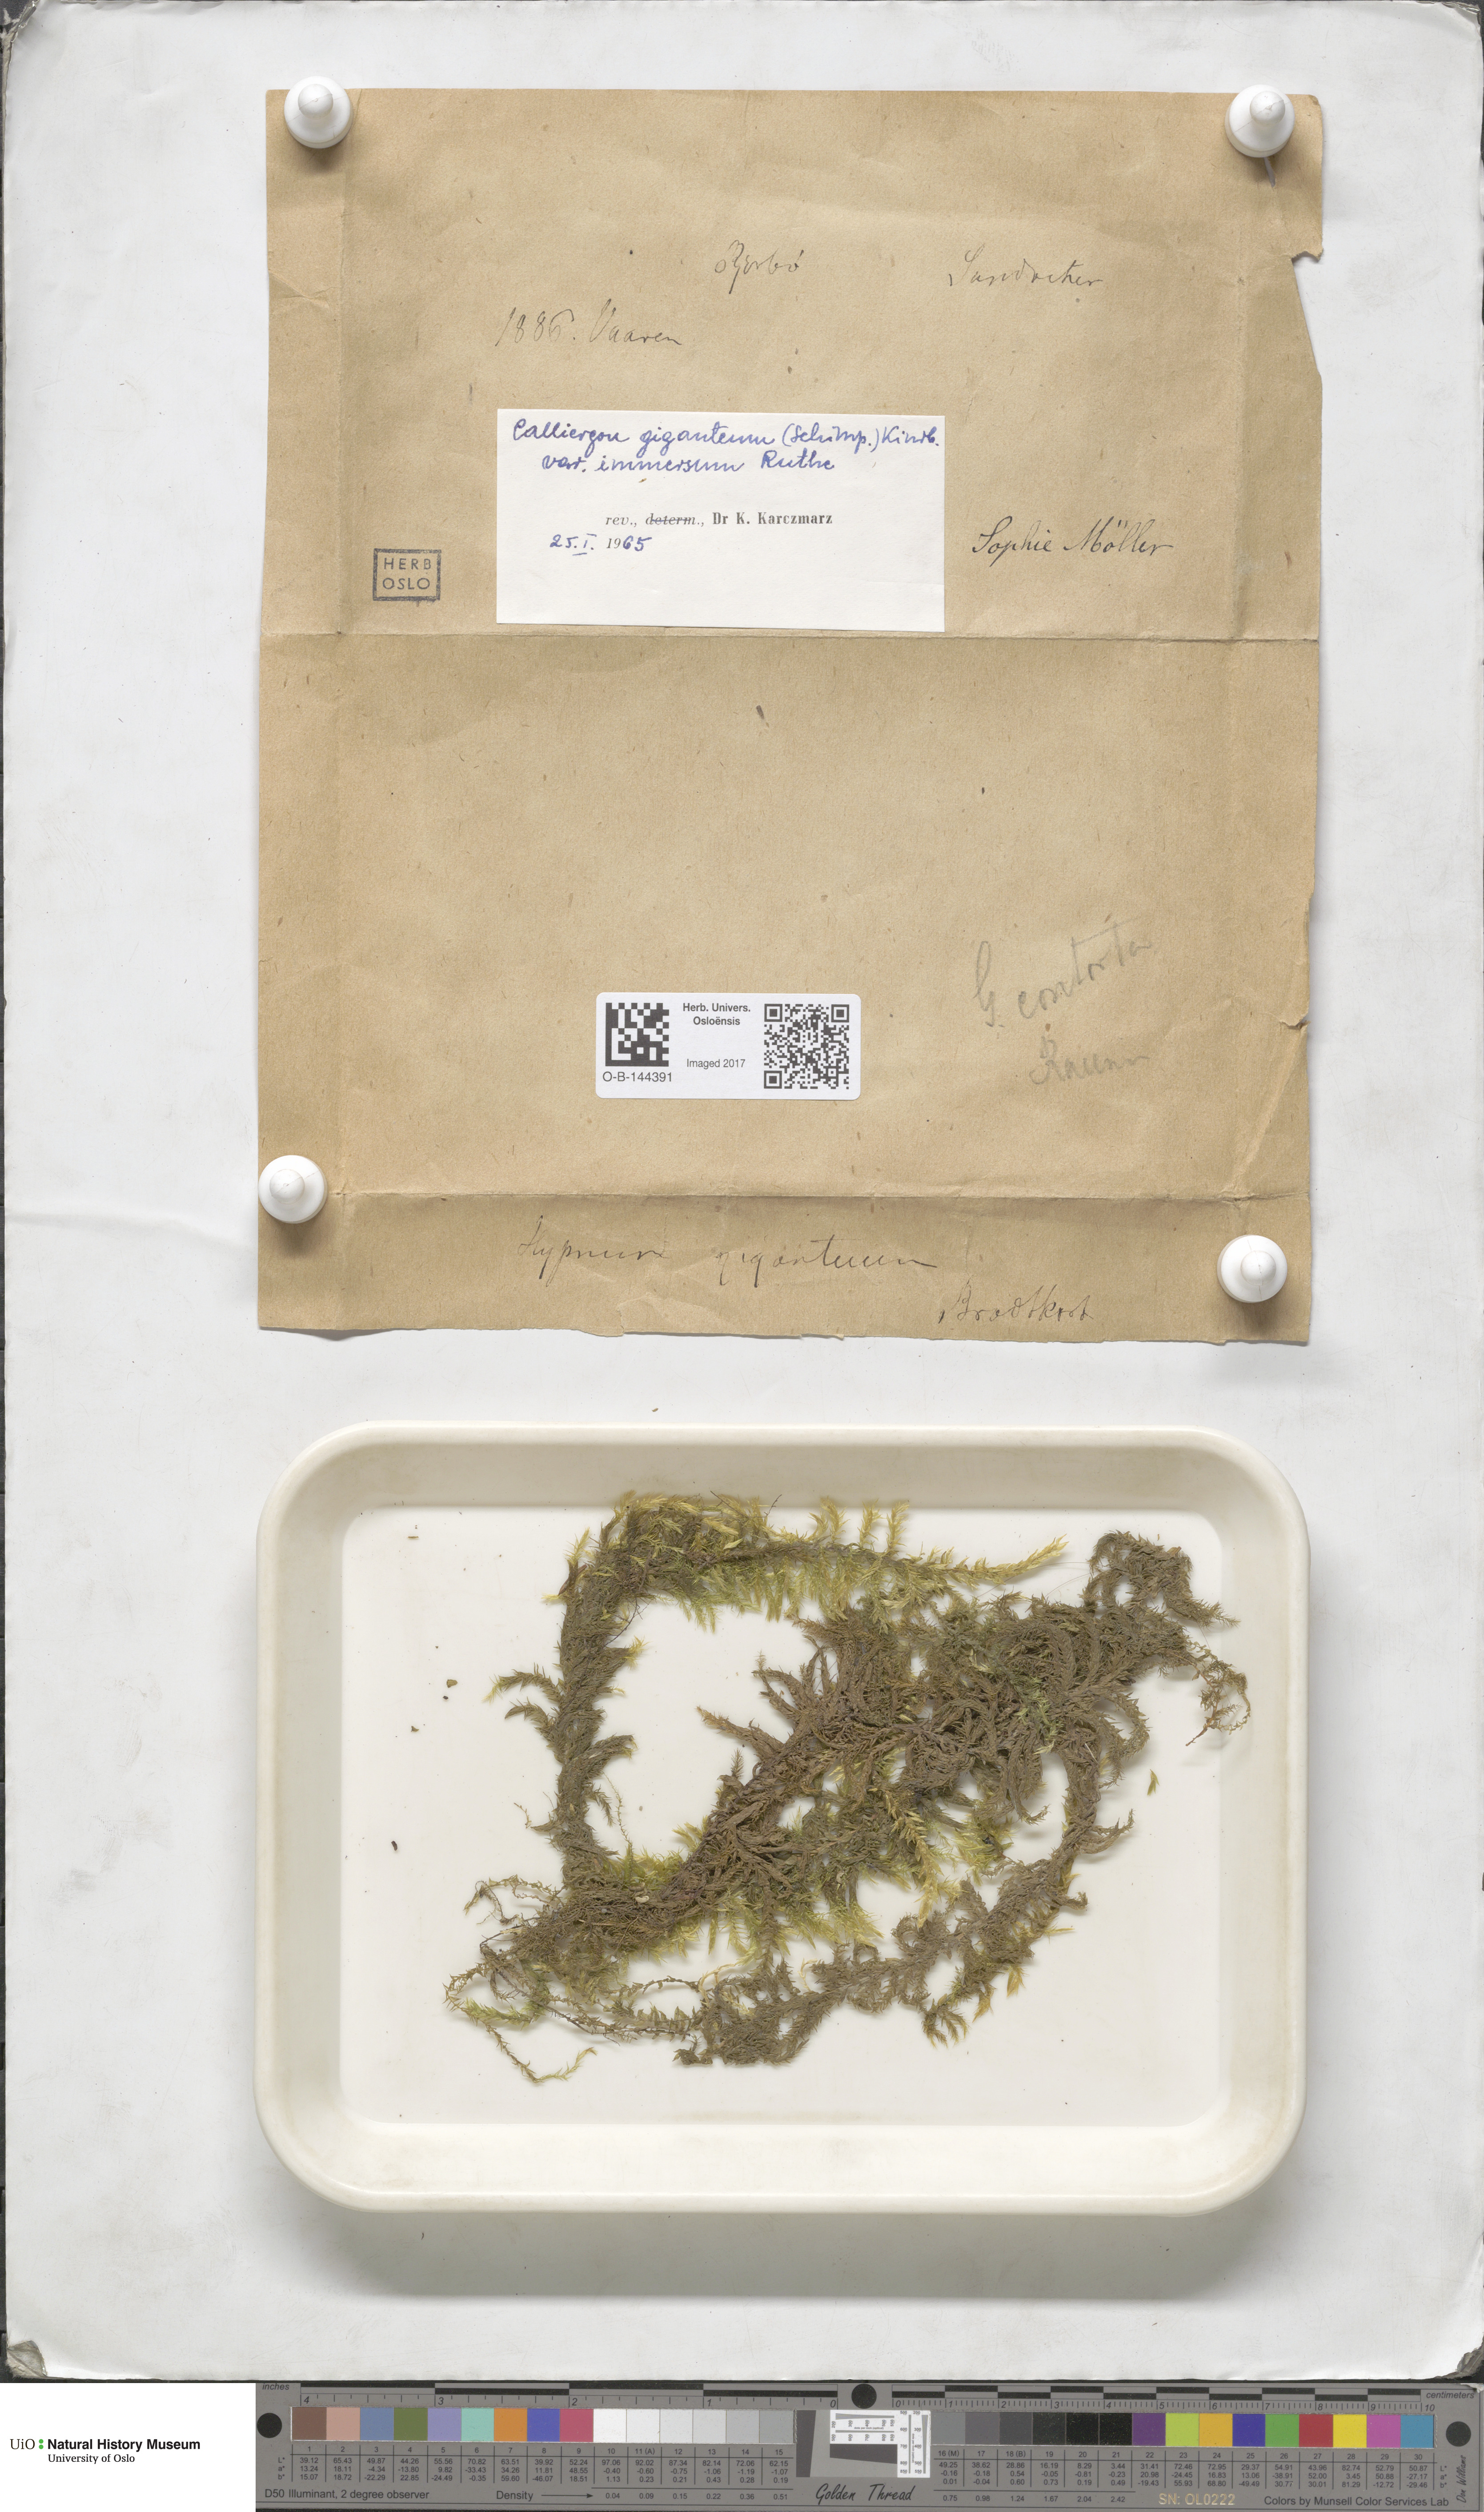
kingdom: Plantae
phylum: Bryophyta
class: Bryopsida
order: Hypnales
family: Calliergonaceae
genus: Calliergon
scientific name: Calliergon giganteum
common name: Giant spear moss
